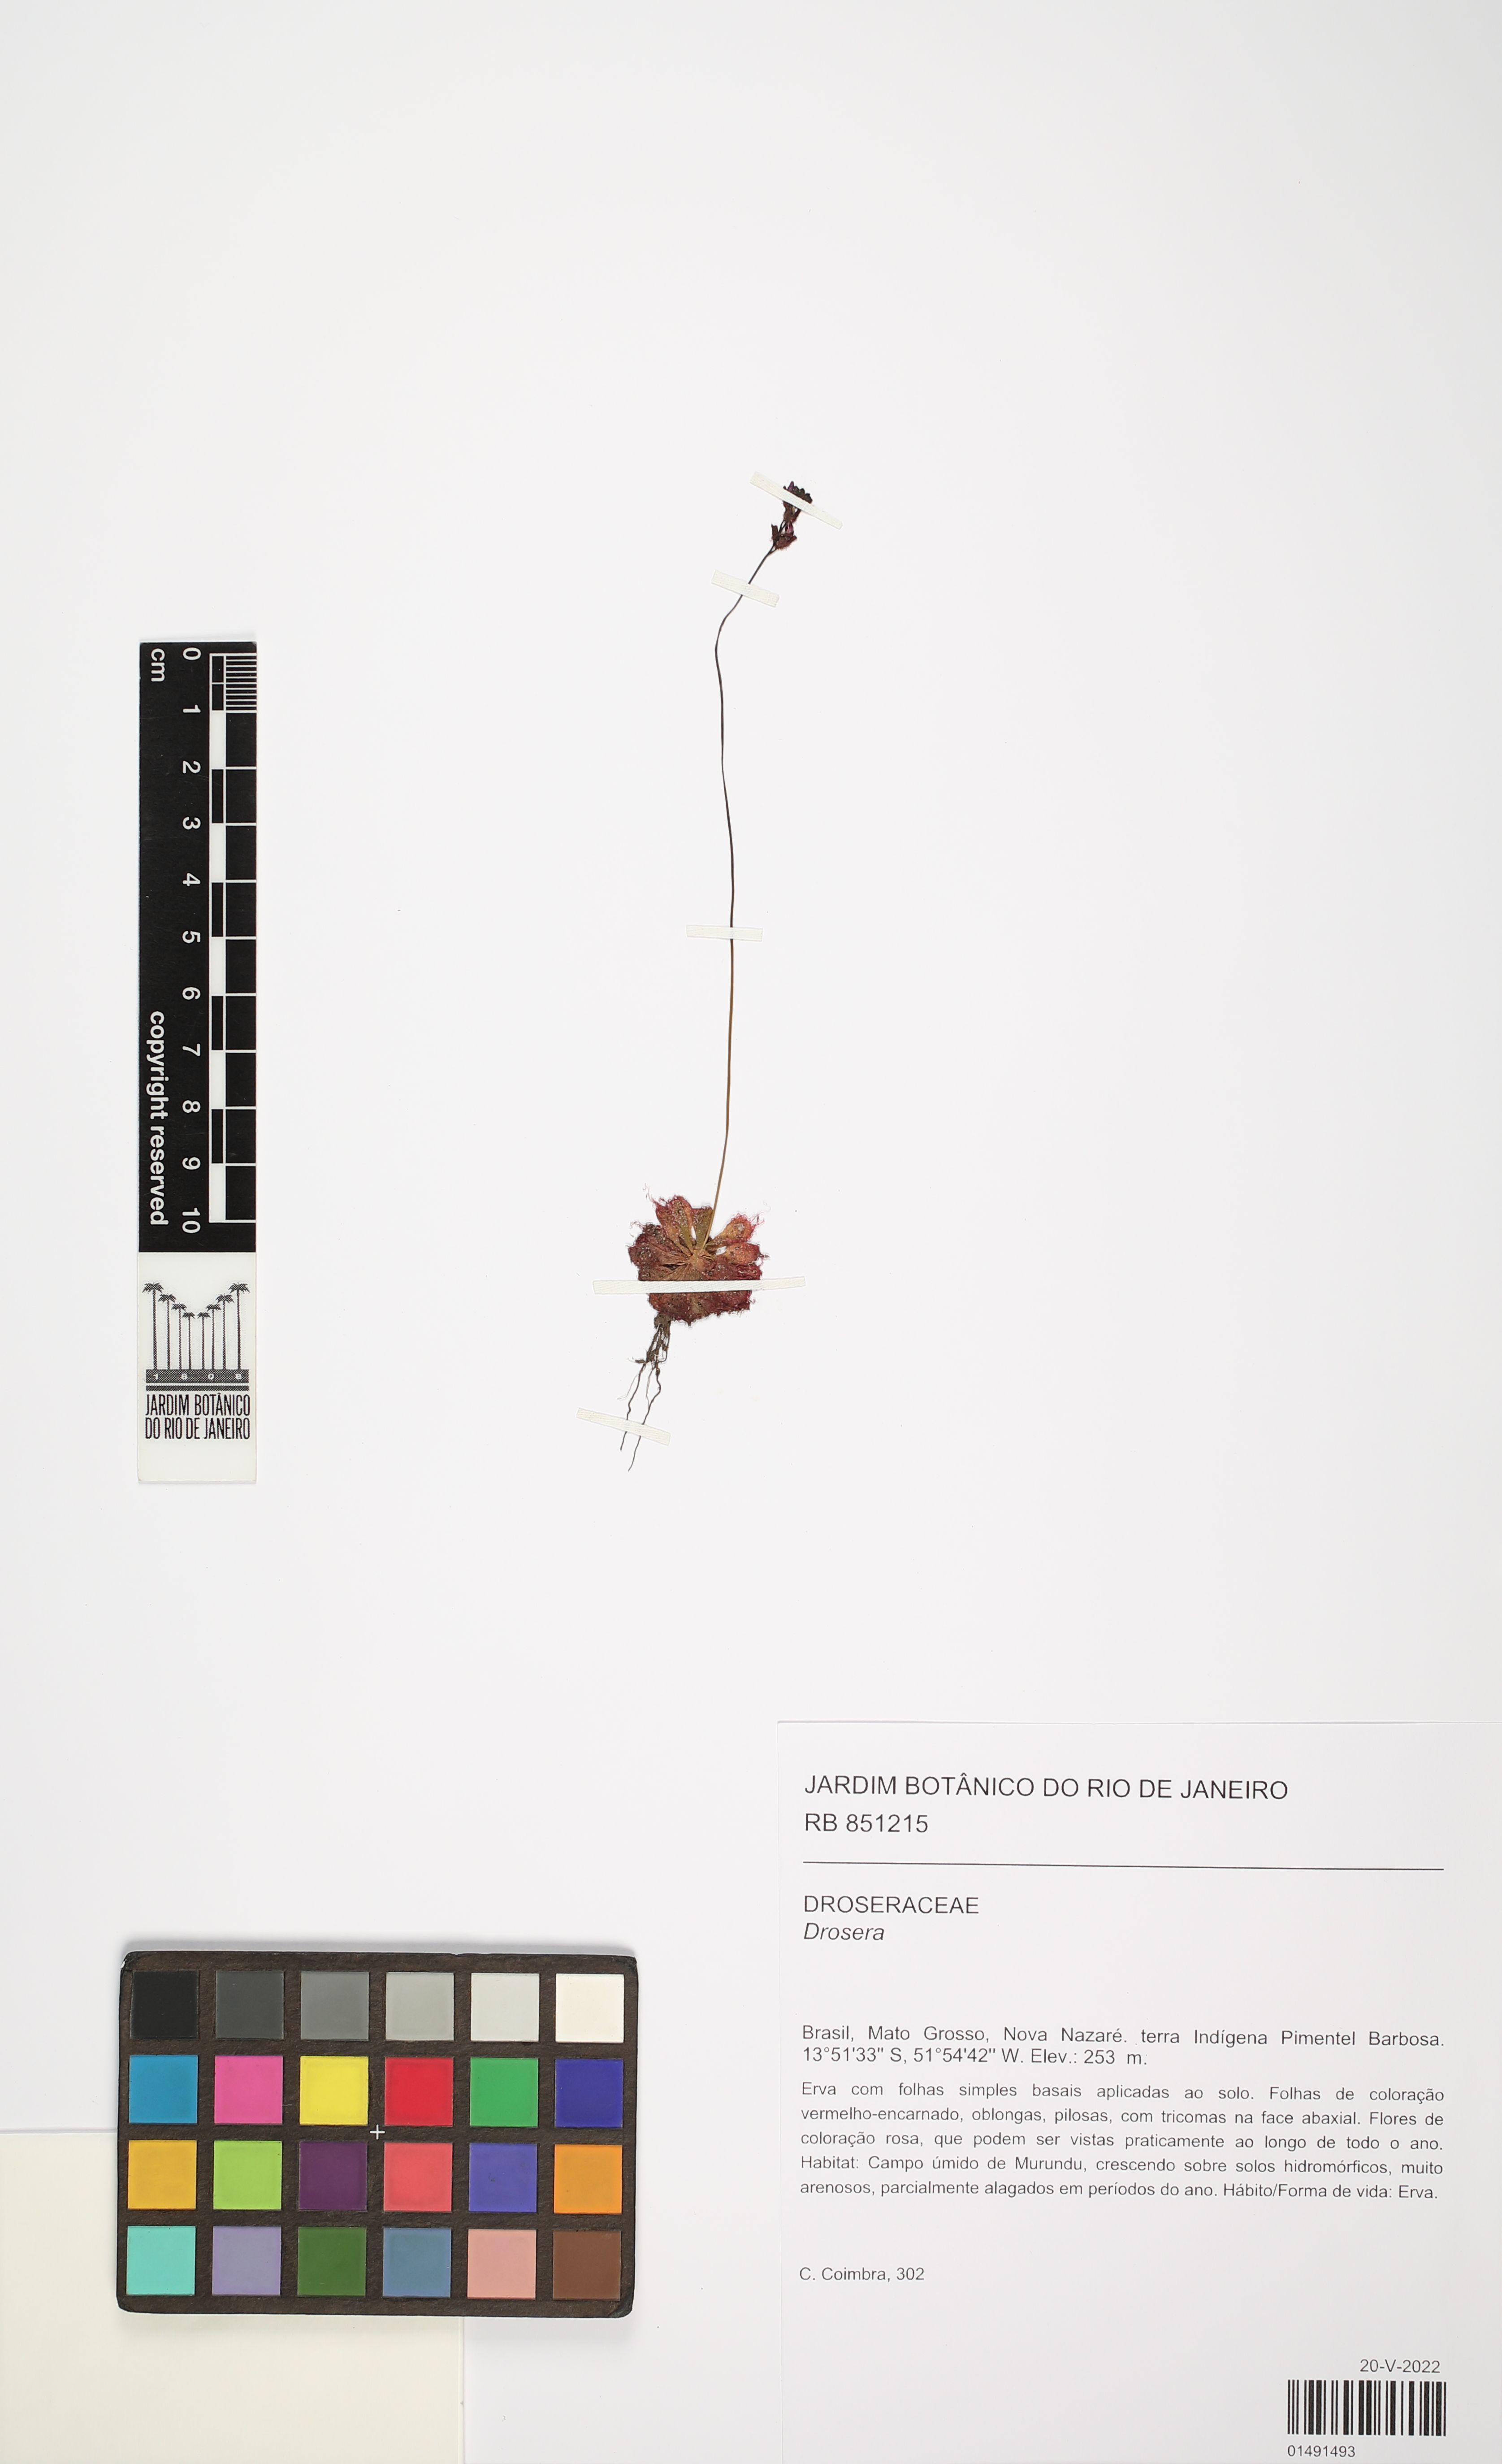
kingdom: Plantae
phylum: Tracheophyta
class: Magnoliopsida
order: Caryophyllales
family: Droseraceae
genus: Drosera
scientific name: Drosera
